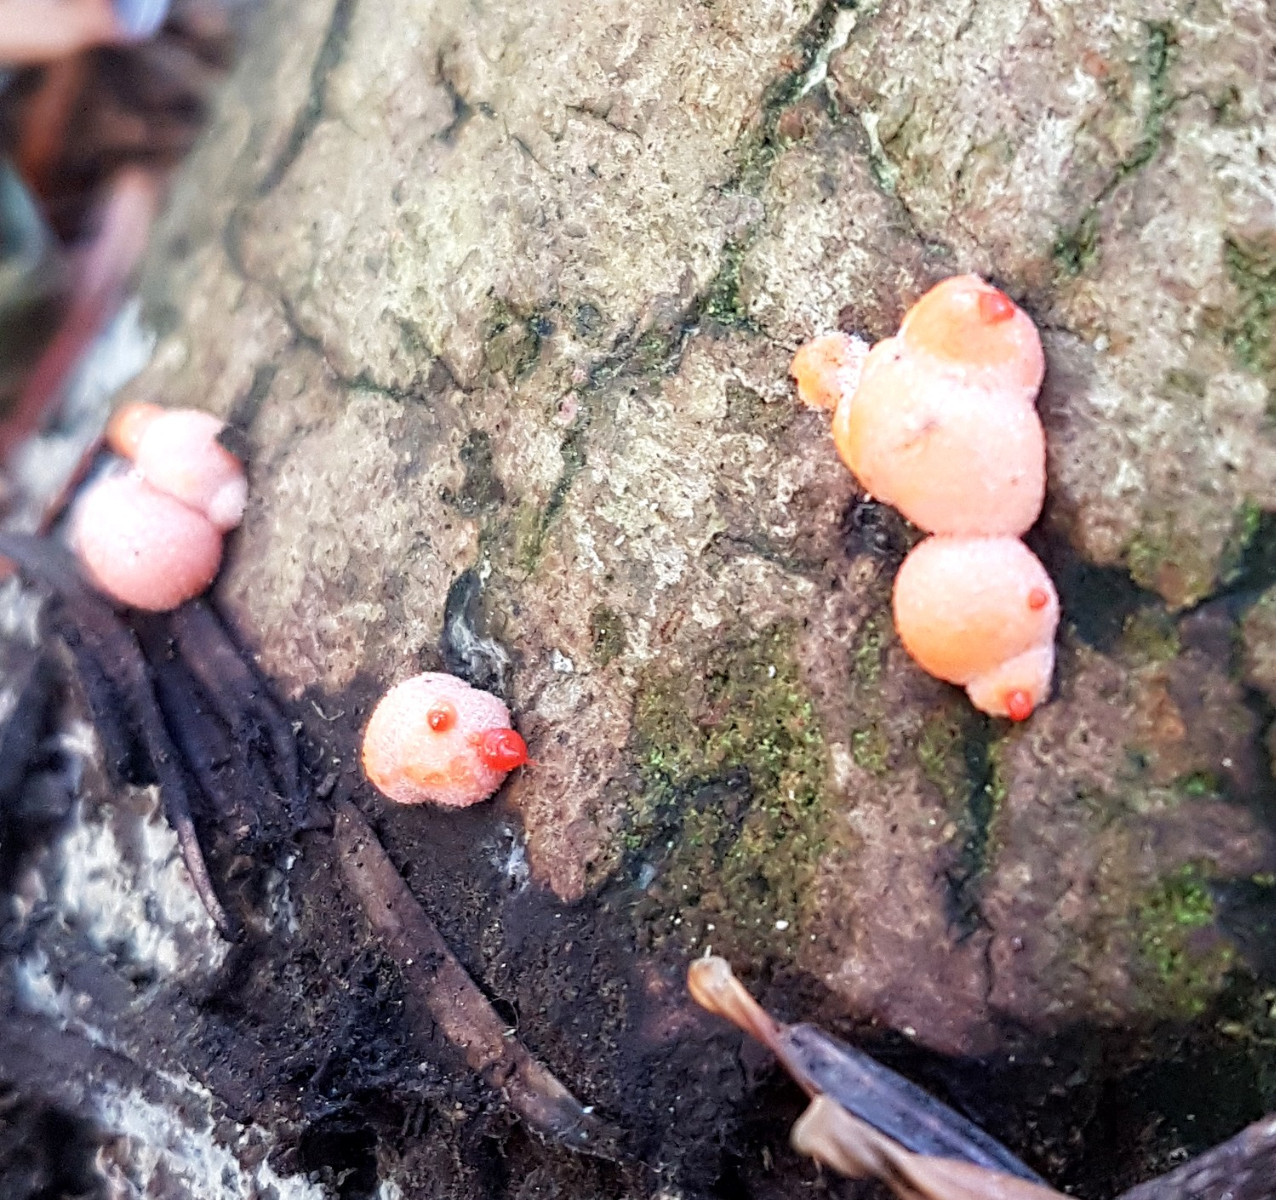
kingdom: Protozoa
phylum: Mycetozoa
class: Myxomycetes
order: Cribrariales
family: Tubiferaceae
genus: Lycogala
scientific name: Lycogala epidendrum
